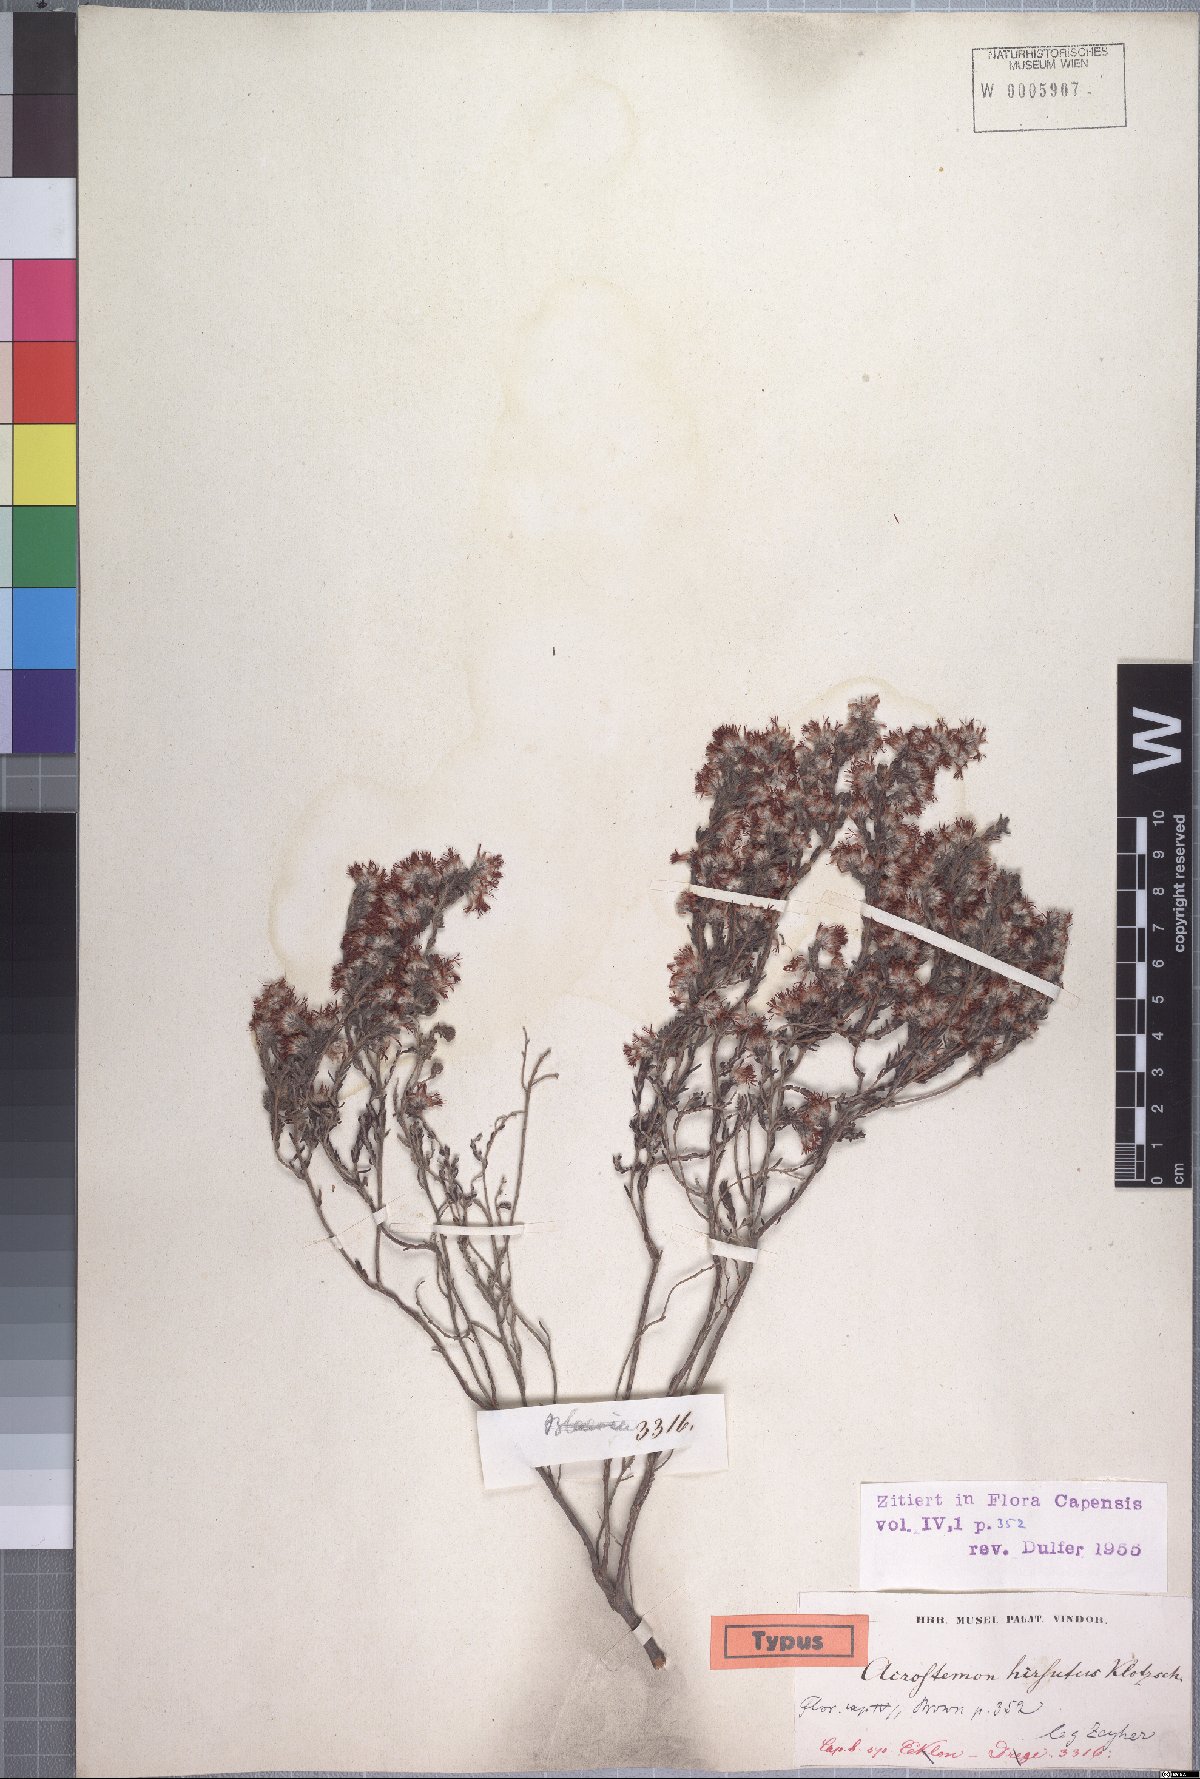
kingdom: Plantae
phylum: Tracheophyta
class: Magnoliopsida
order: Ericales
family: Ericaceae
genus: Erica
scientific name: Erica eriocephala
